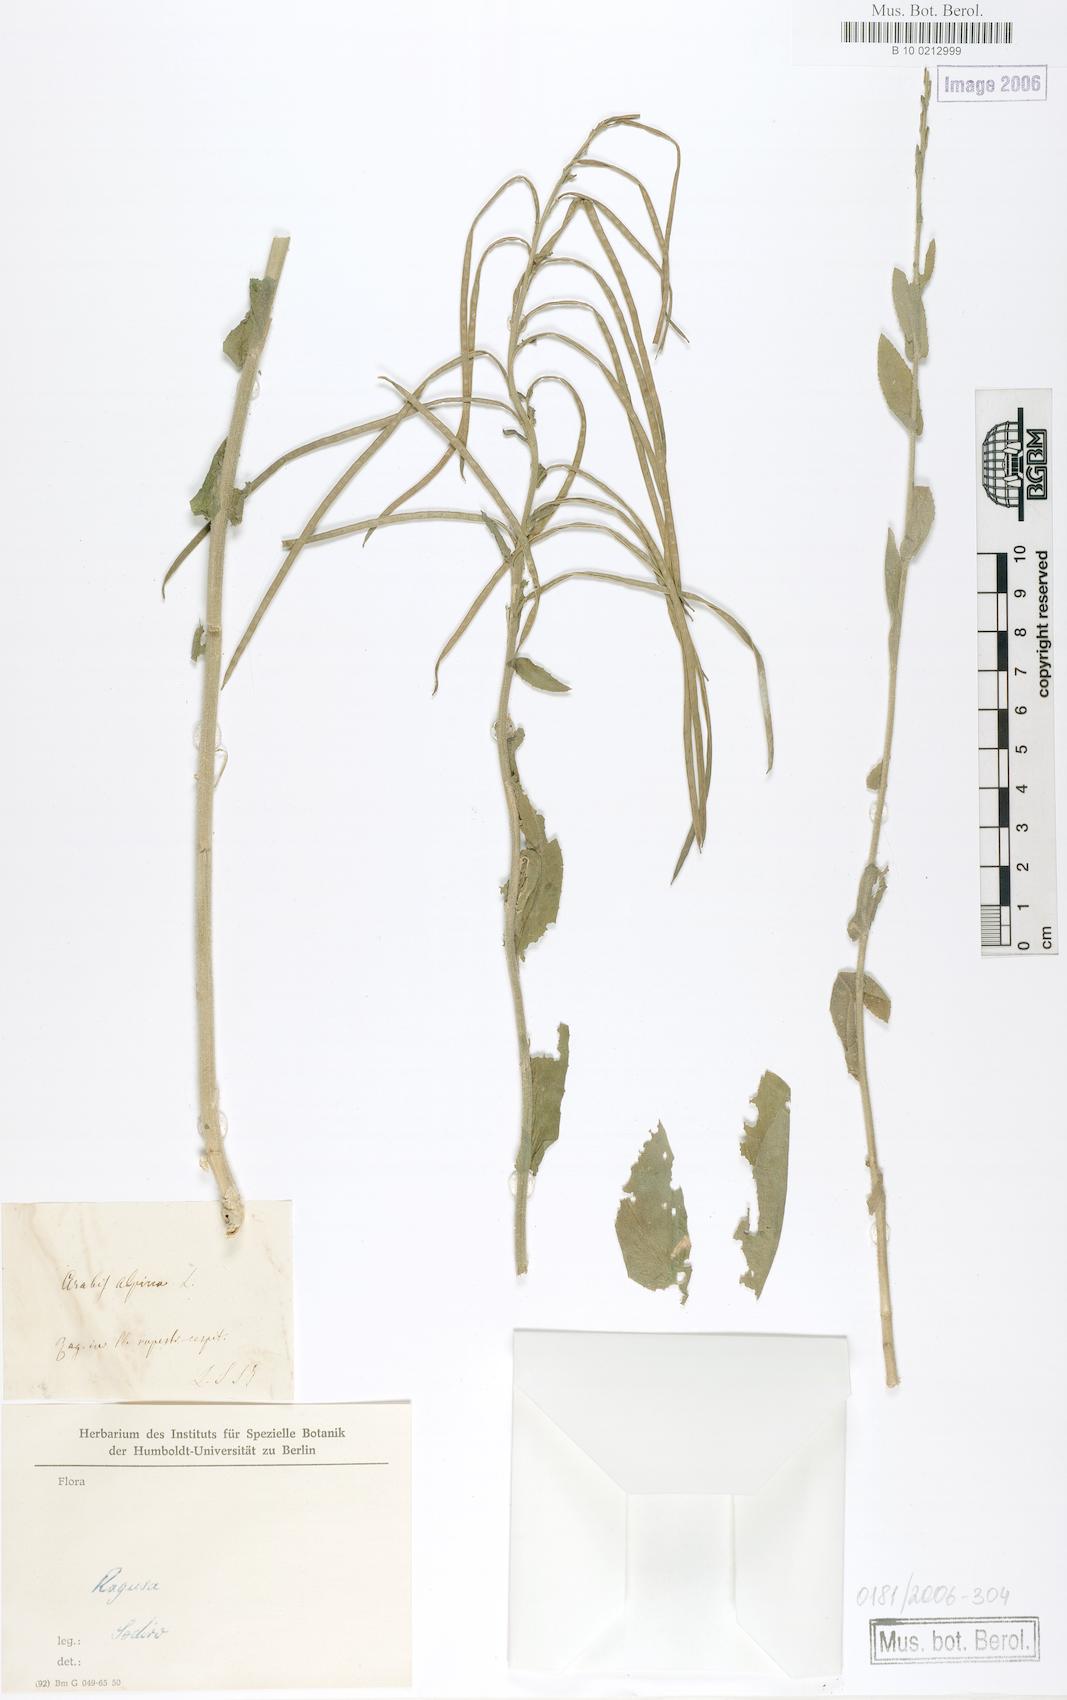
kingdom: Plantae
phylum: Tracheophyta
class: Magnoliopsida
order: Brassicales
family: Brassicaceae
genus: Arabis
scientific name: Arabis alpina
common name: Alpine rock-cress
